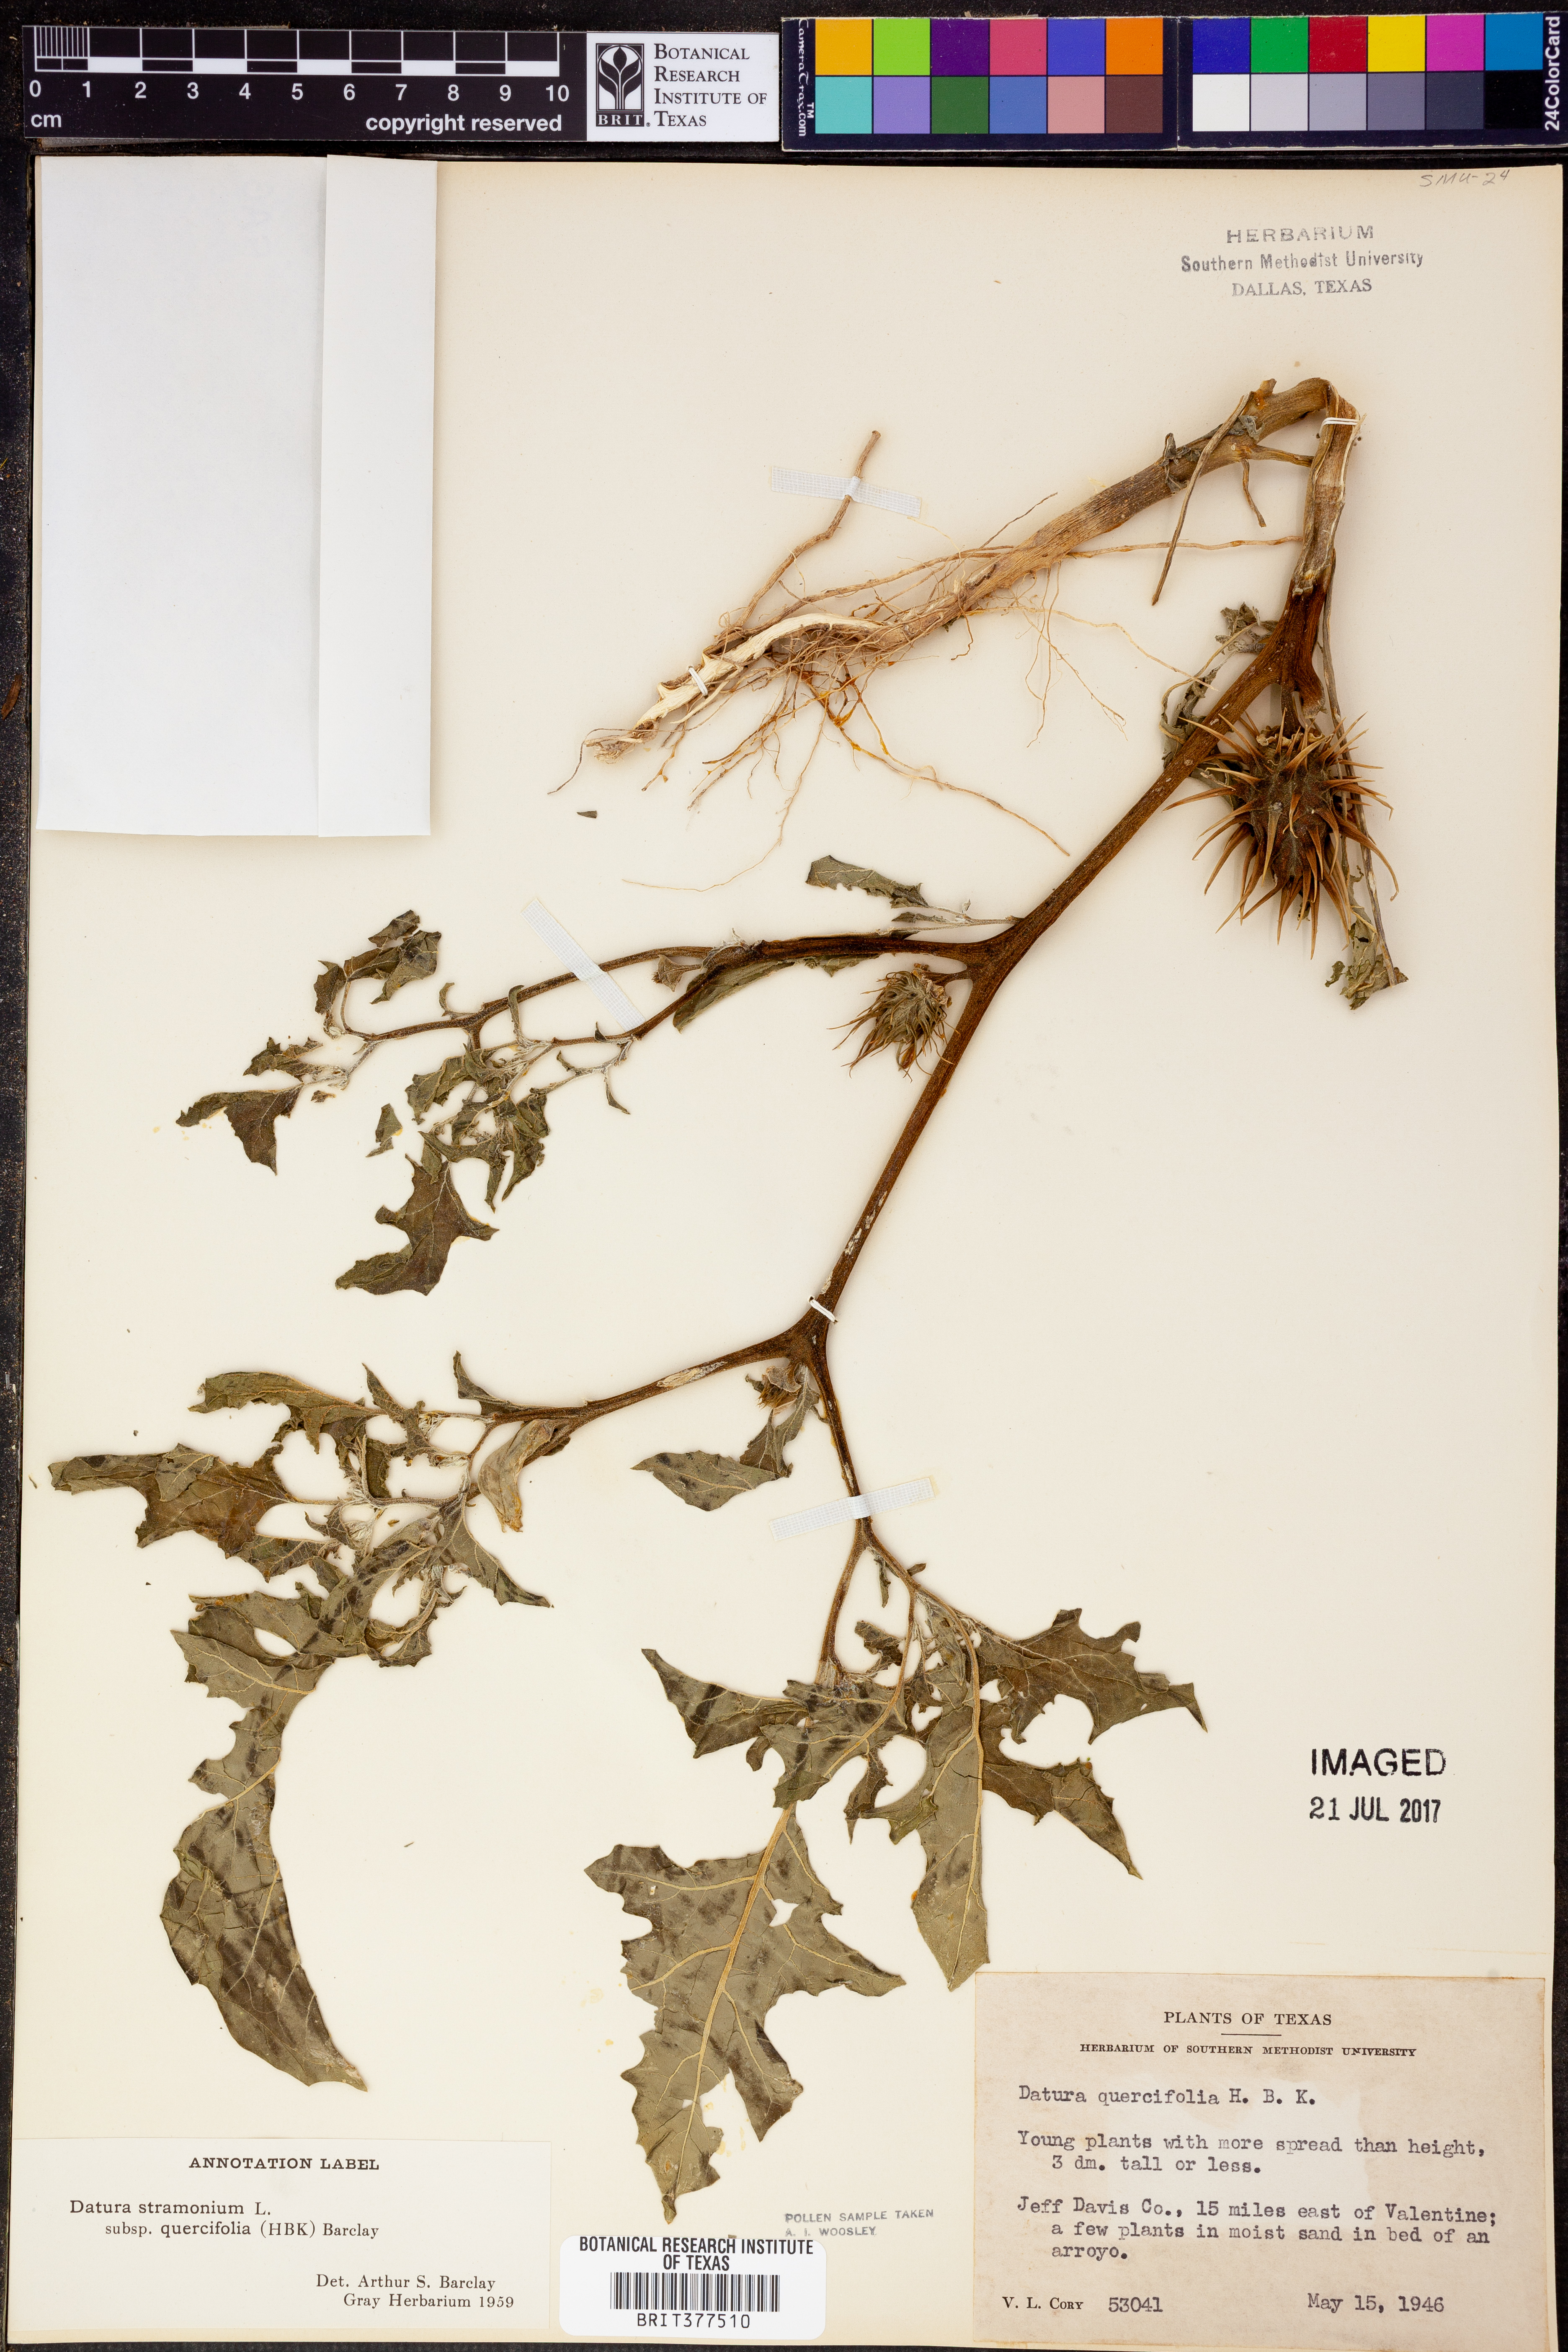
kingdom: Plantae
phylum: Tracheophyta
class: Magnoliopsida
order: Solanales
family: Solanaceae
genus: Datura
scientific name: Datura stramonium
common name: Thorn-apple
